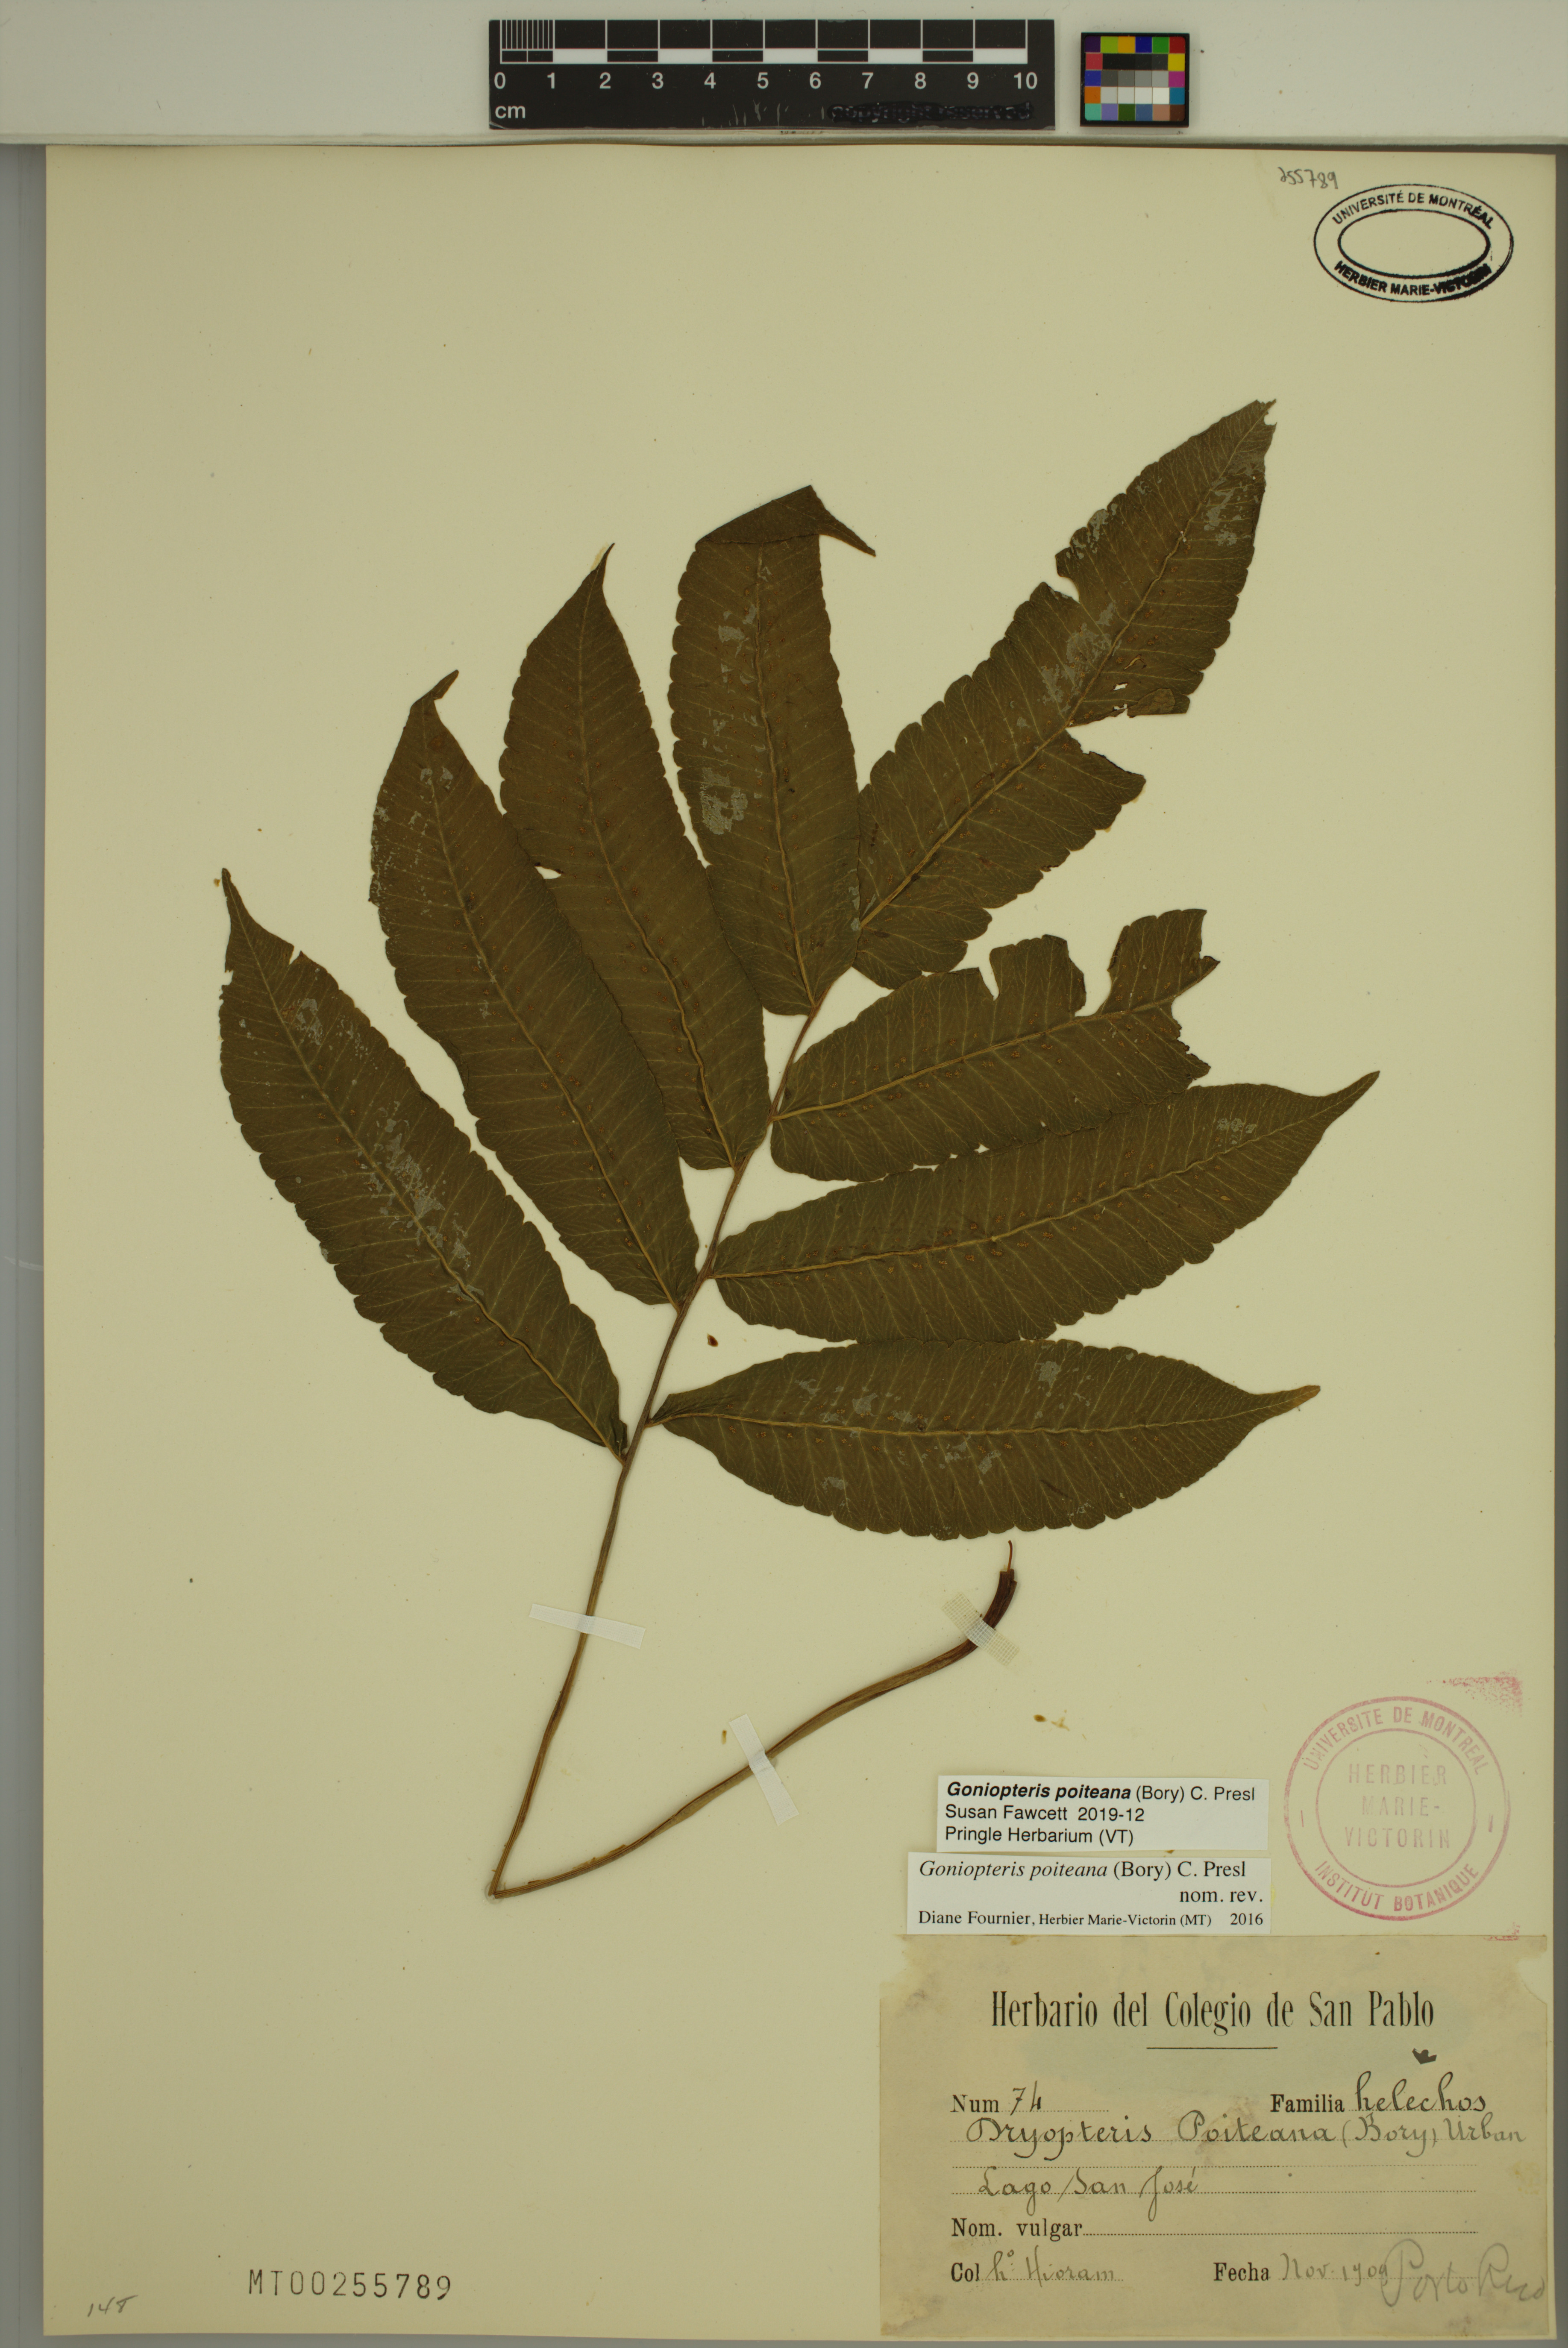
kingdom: Plantae
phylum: Tracheophyta
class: Polypodiopsida
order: Polypodiales
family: Thelypteridaceae
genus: Goniopteris
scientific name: Goniopteris poiteana
